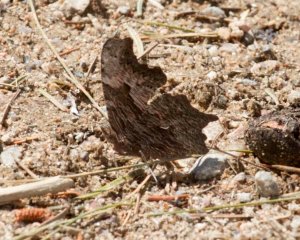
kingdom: Animalia
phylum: Arthropoda
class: Insecta
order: Lepidoptera
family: Nymphalidae
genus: Polygonia
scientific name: Polygonia progne
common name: Gray Comma
